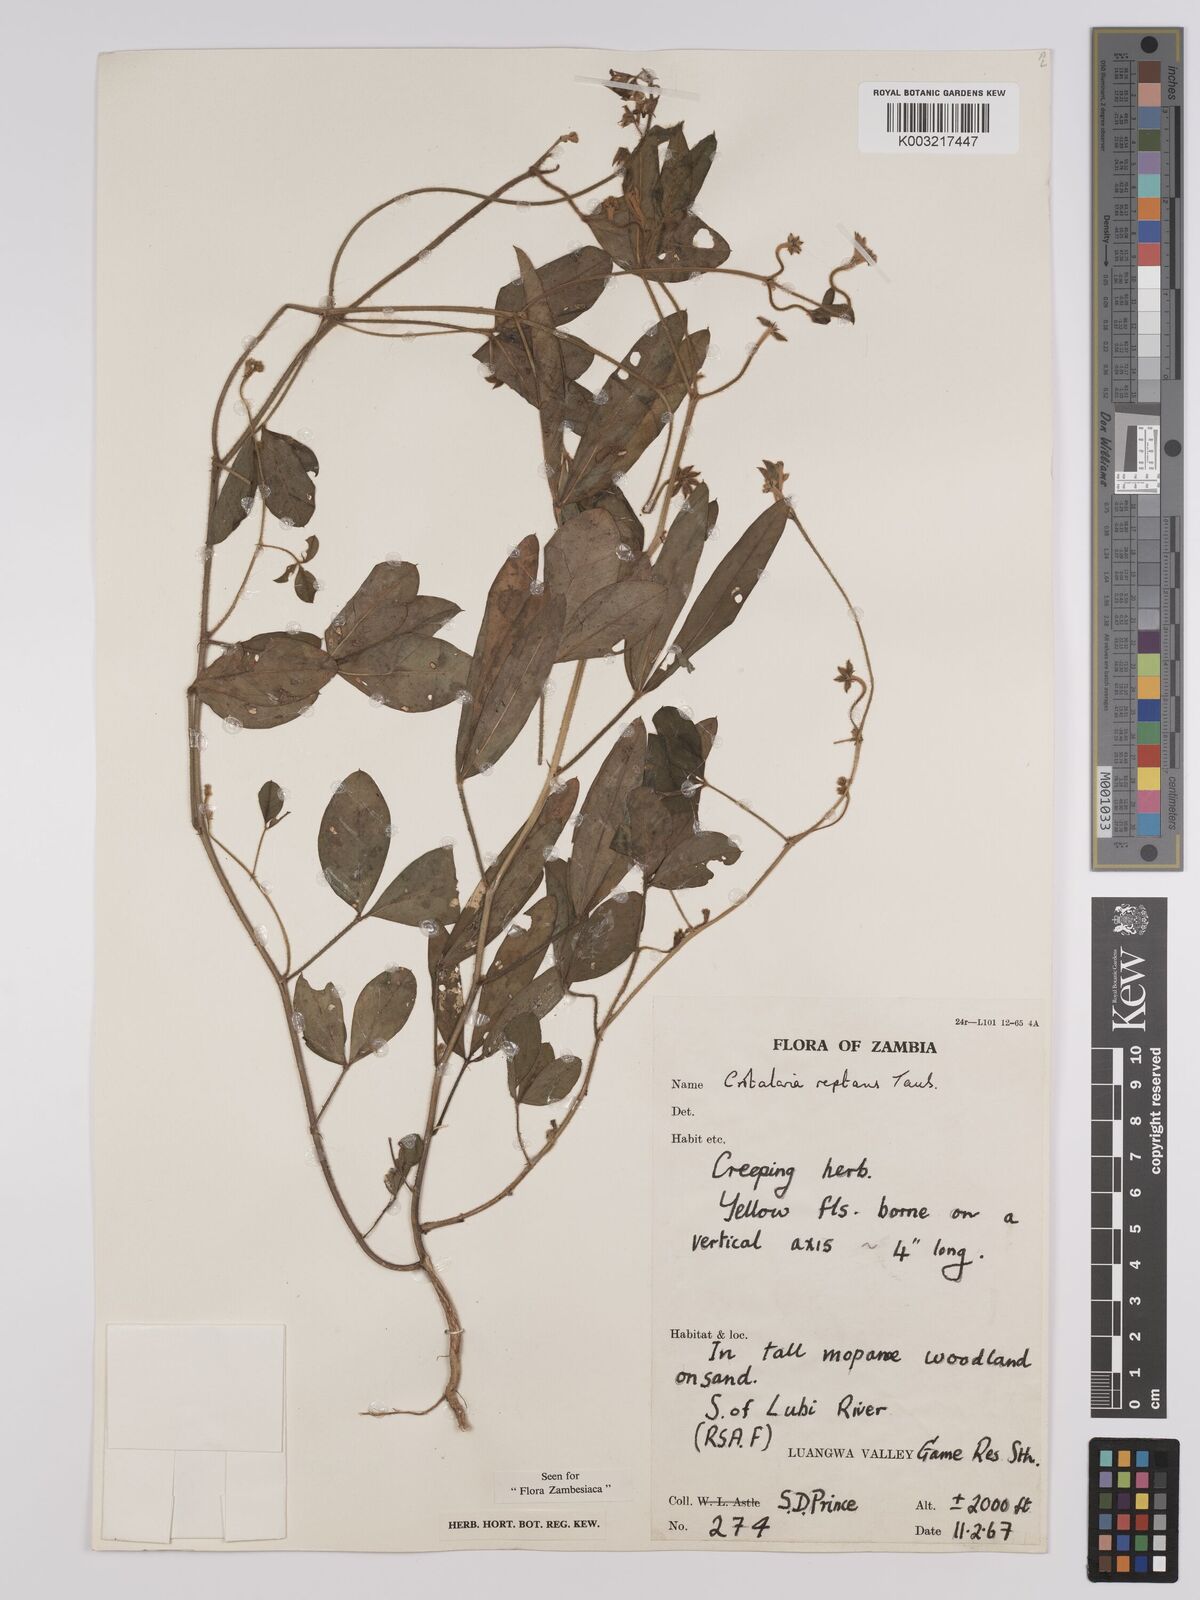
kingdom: Plantae
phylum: Tracheophyta
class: Magnoliopsida
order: Fabales
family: Fabaceae
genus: Crotalaria
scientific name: Crotalaria reptans
